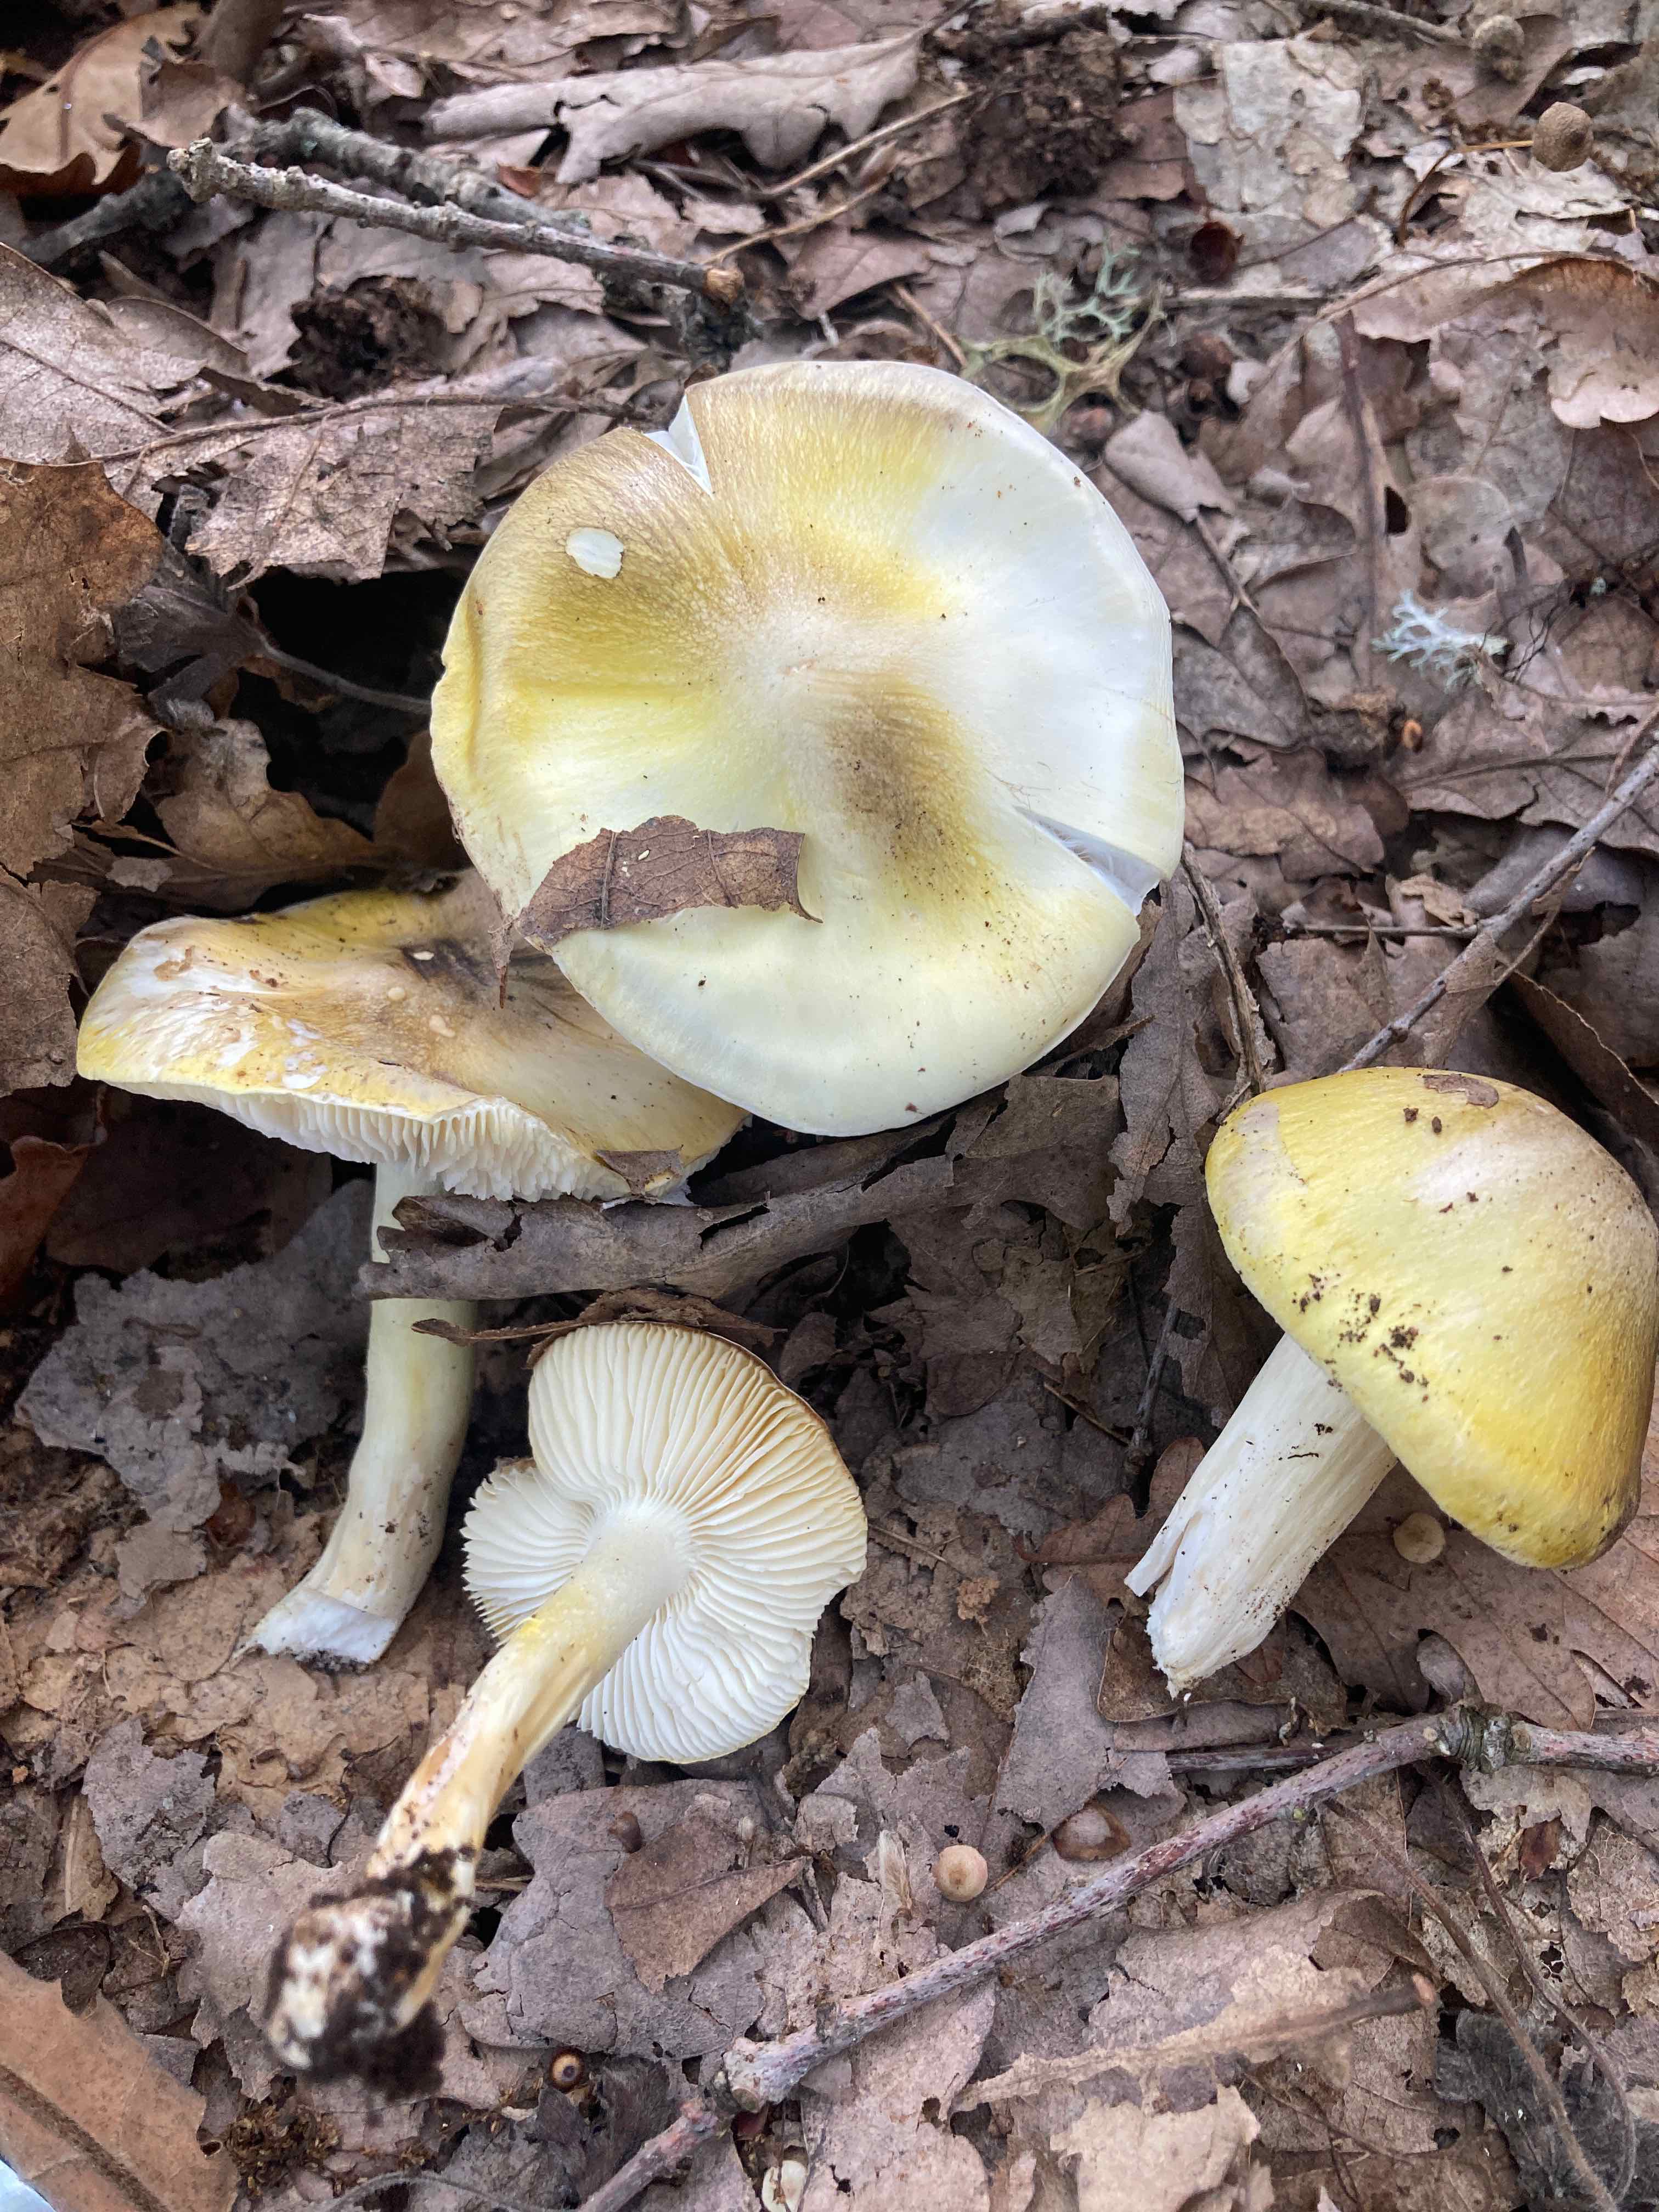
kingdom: Fungi
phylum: Basidiomycota
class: Agaricomycetes
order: Agaricales
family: Tricholomataceae
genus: Tricholoma
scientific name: Tricholoma sejunctum
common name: grøngul ridderhat
